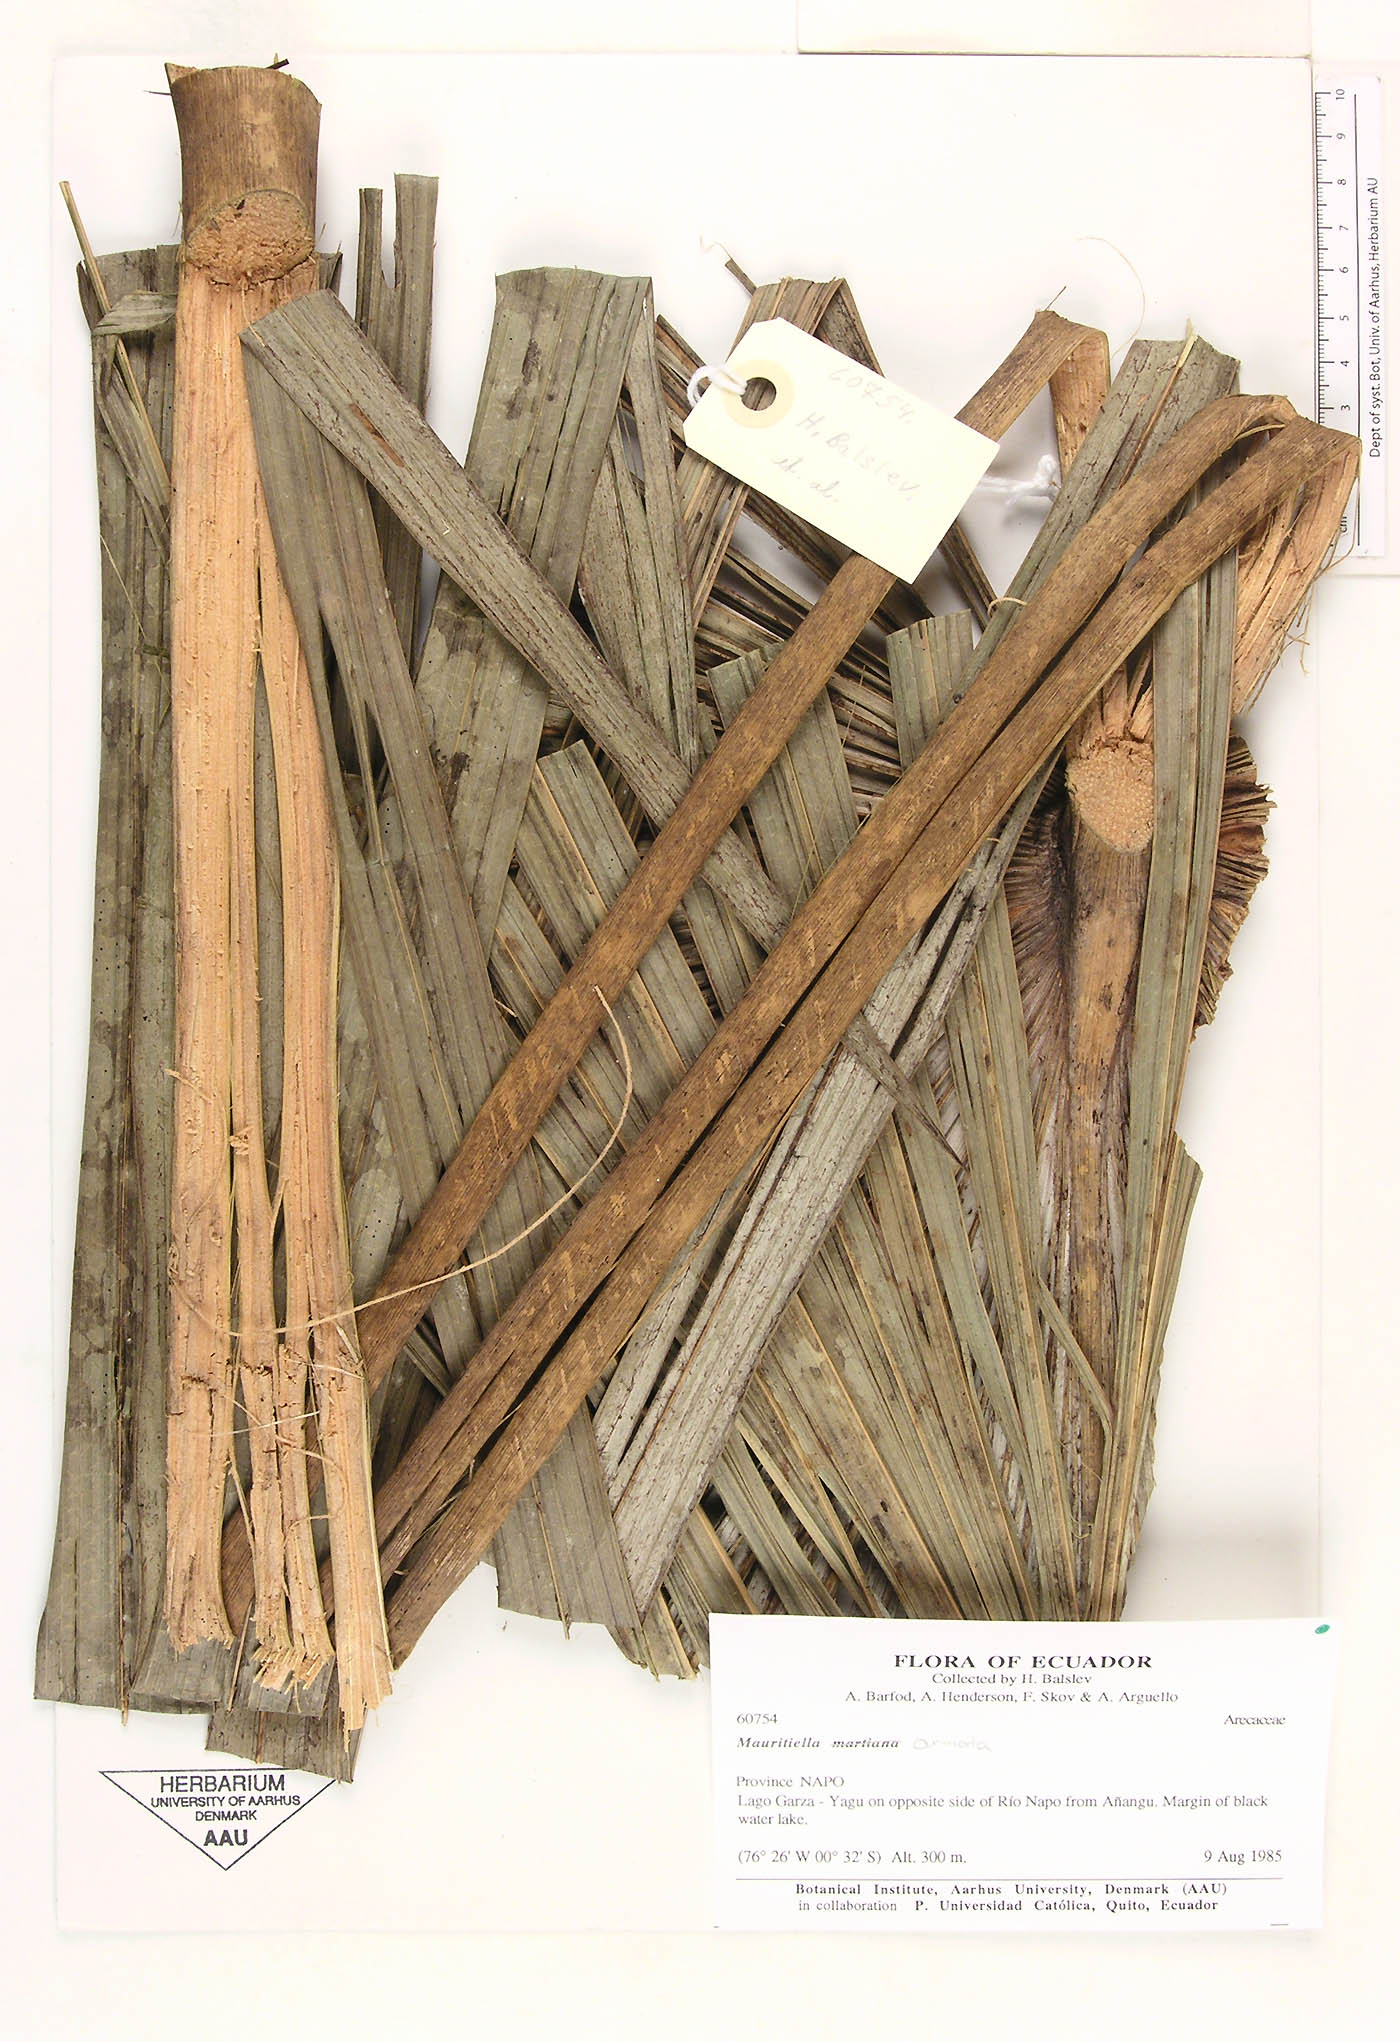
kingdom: Plantae
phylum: Tracheophyta
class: Liliopsida
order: Arecales
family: Arecaceae
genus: Mauritiella
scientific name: Mauritiella armata
